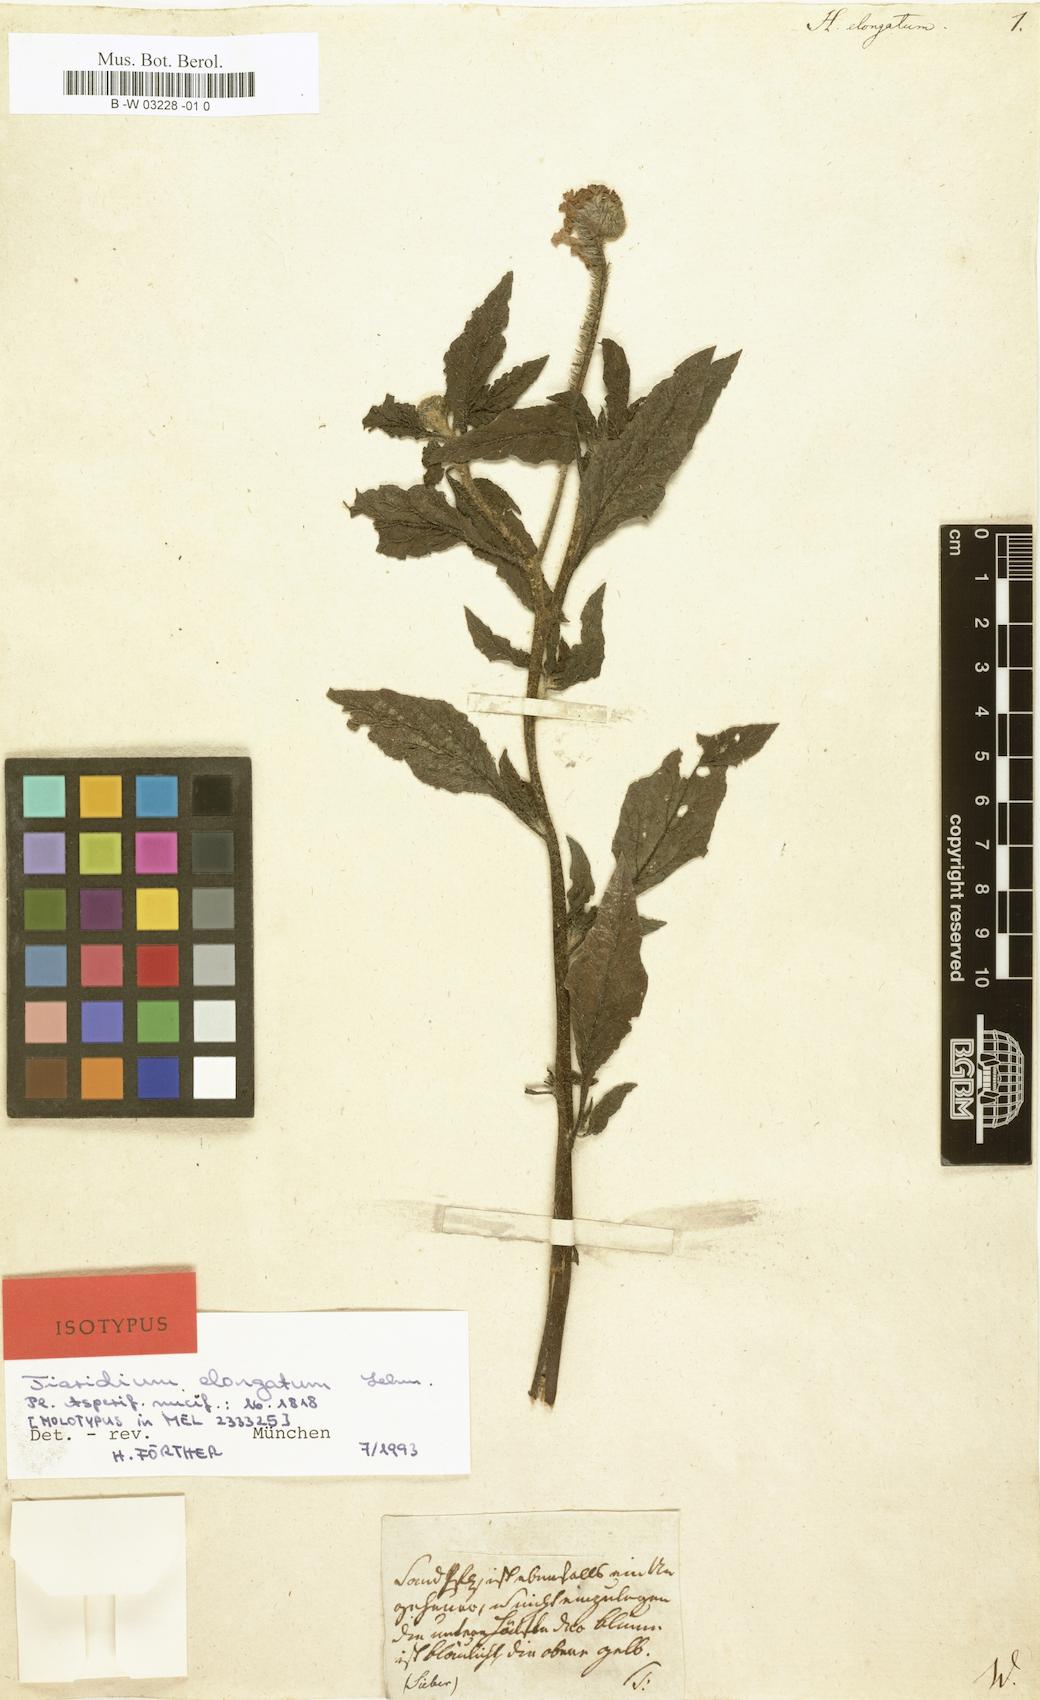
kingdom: Plantae
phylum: Tracheophyta
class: Magnoliopsida
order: Boraginales
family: Heliotropiaceae
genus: Heliotropium
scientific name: Heliotropium elongatum
